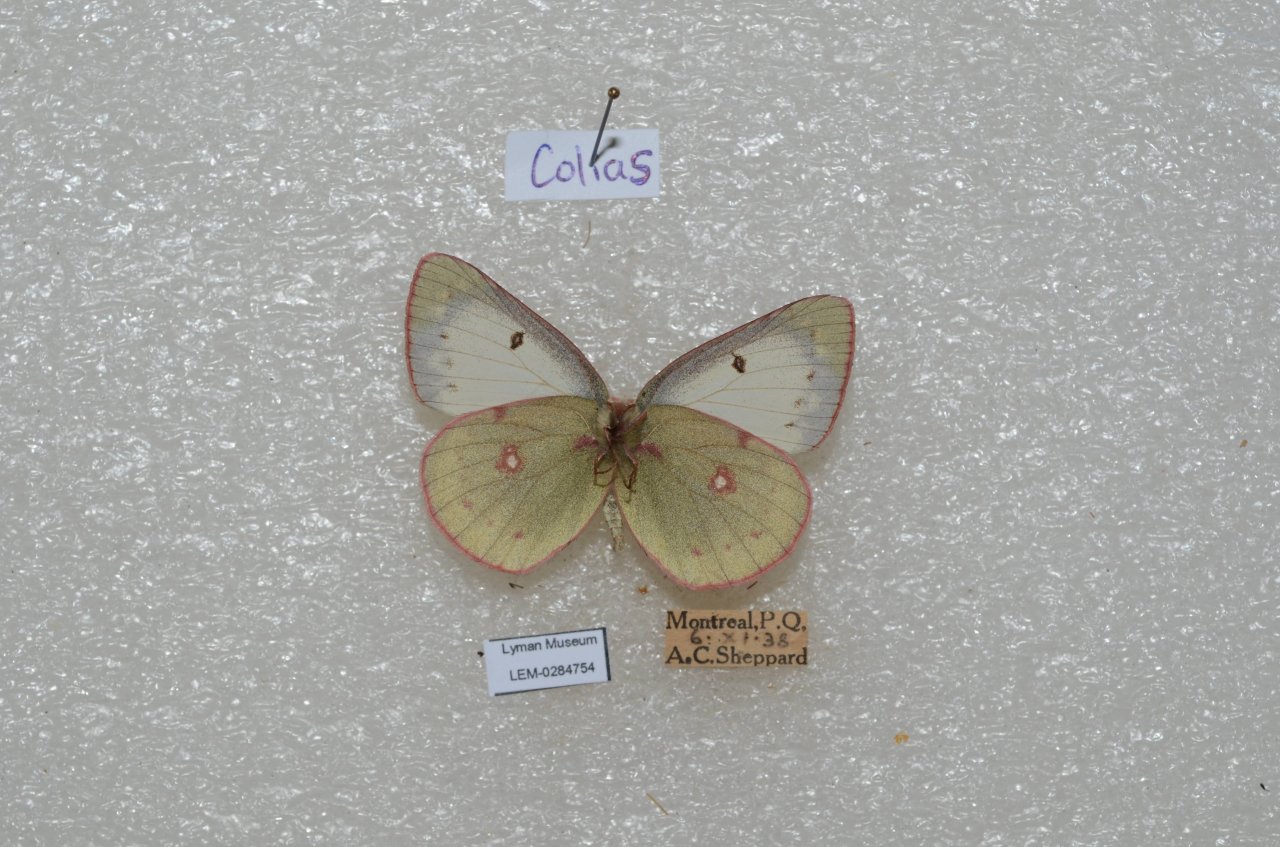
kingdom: Animalia
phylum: Arthropoda
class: Insecta
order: Lepidoptera
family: Pieridae
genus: Colias
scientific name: Colias philodice
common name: Clouded Sulphur
